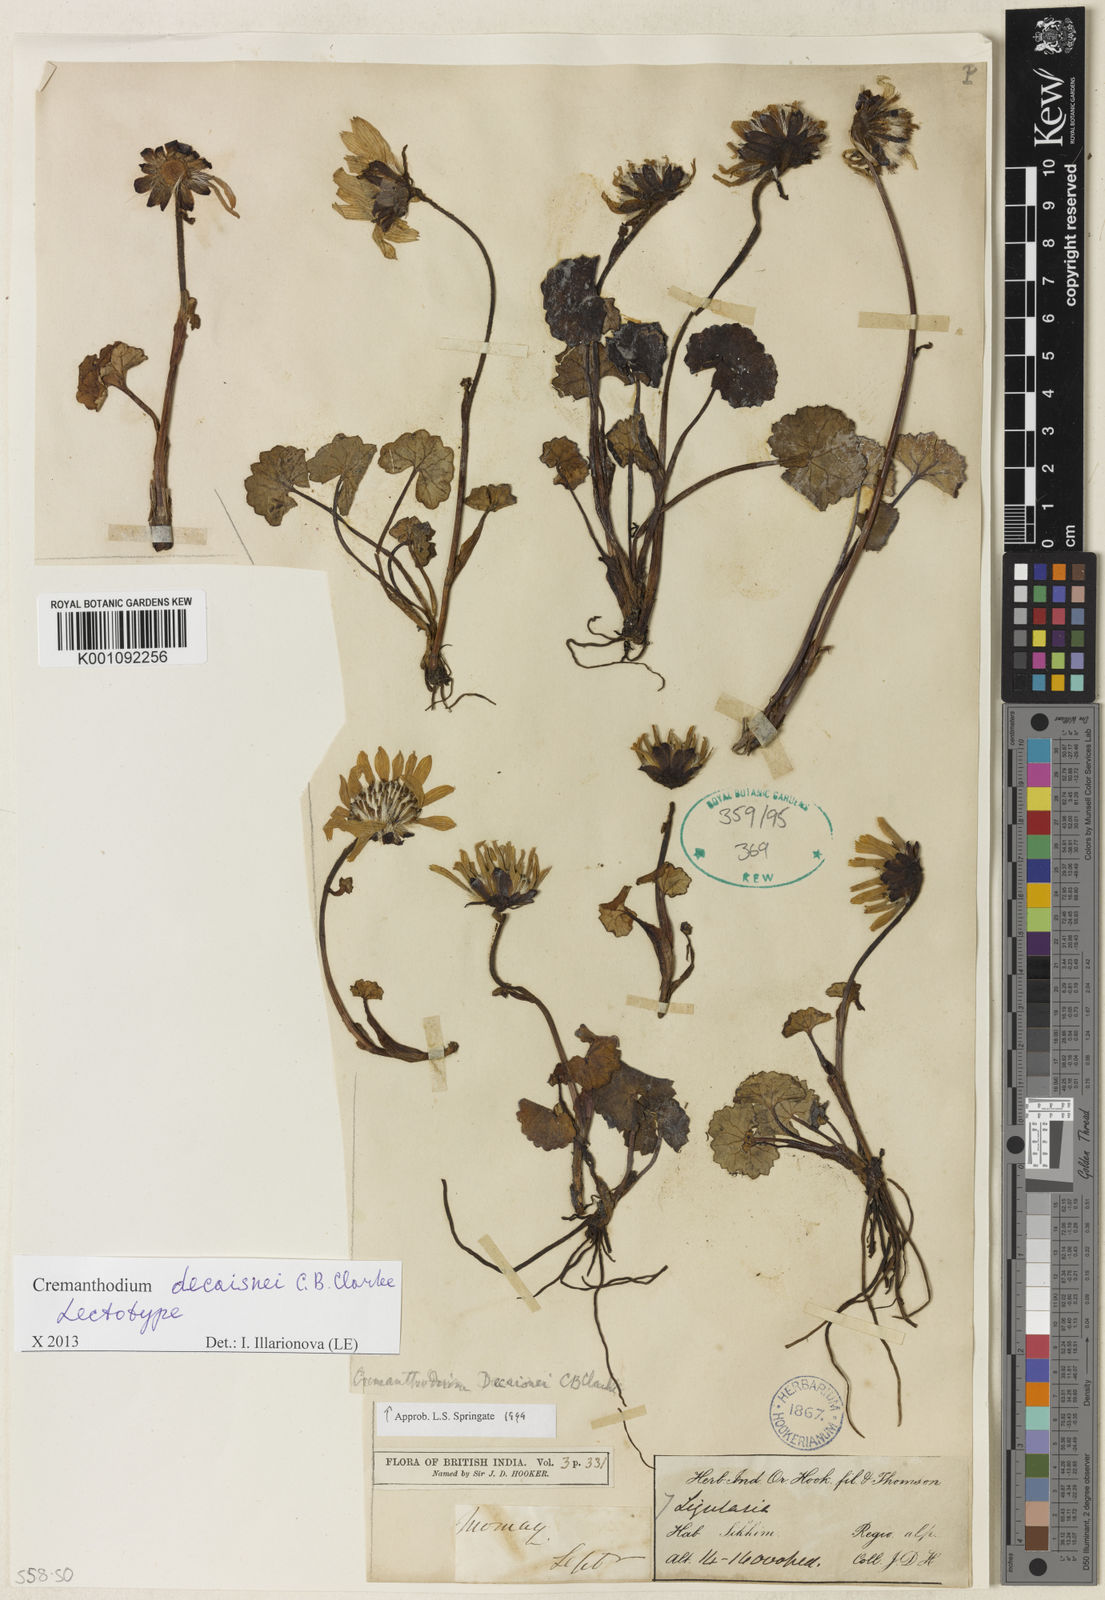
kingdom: Plantae
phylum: Tracheophyta
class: Magnoliopsida
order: Asterales
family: Asteraceae
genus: Cremanthodium
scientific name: Cremanthodium decaisnei
